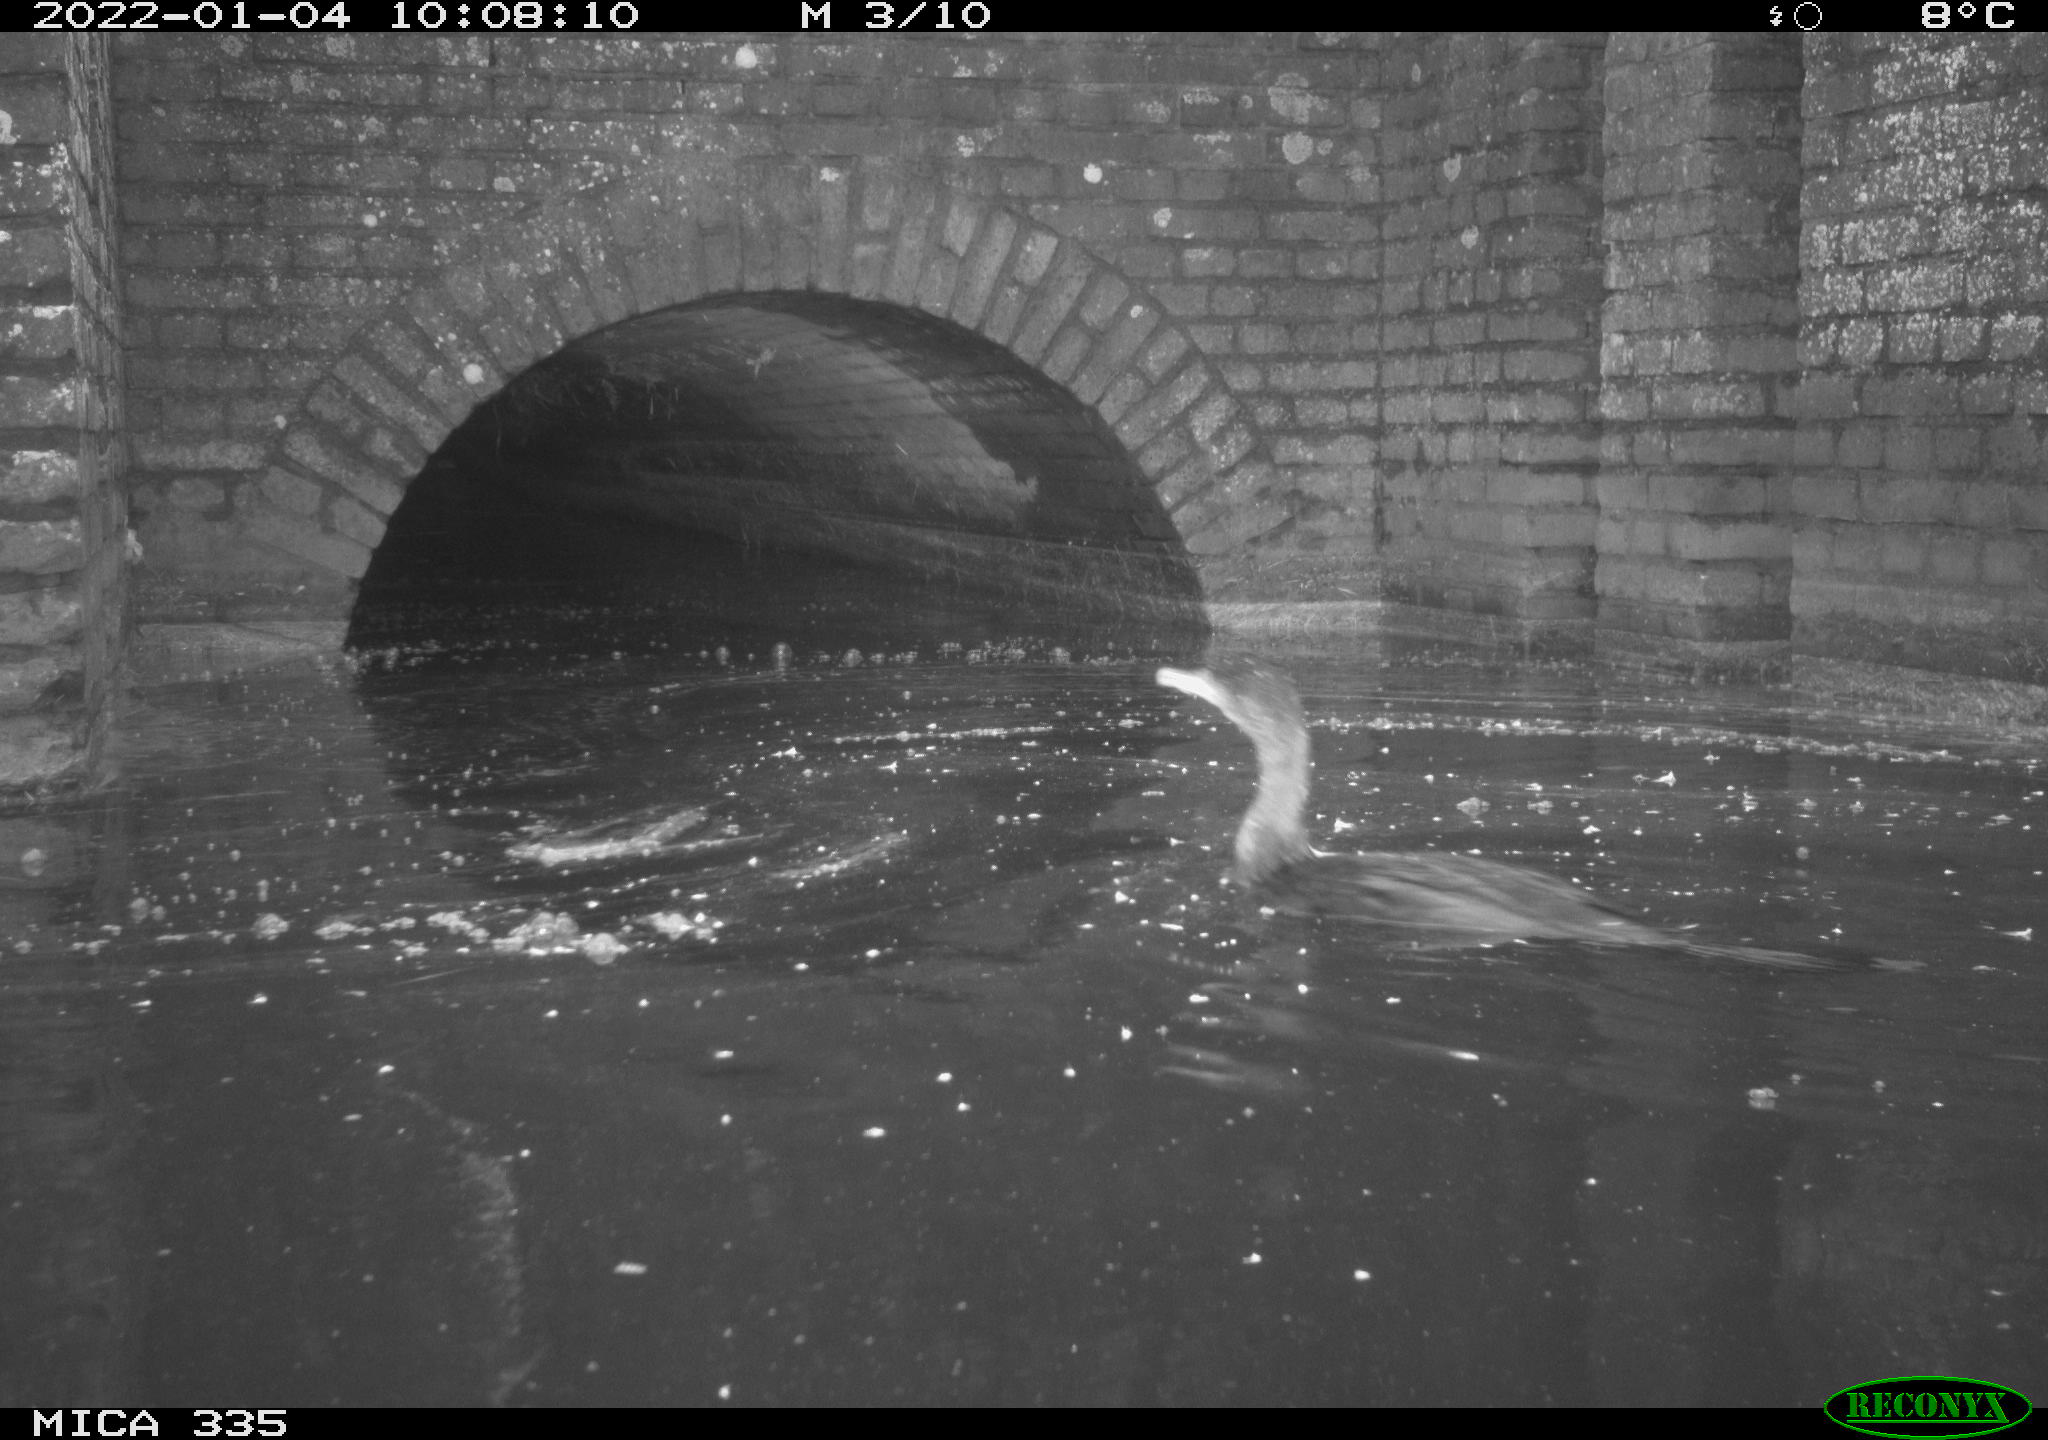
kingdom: Animalia
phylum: Chordata
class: Aves
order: Suliformes
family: Phalacrocoracidae
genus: Phalacrocorax
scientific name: Phalacrocorax carbo
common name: Great cormorant
